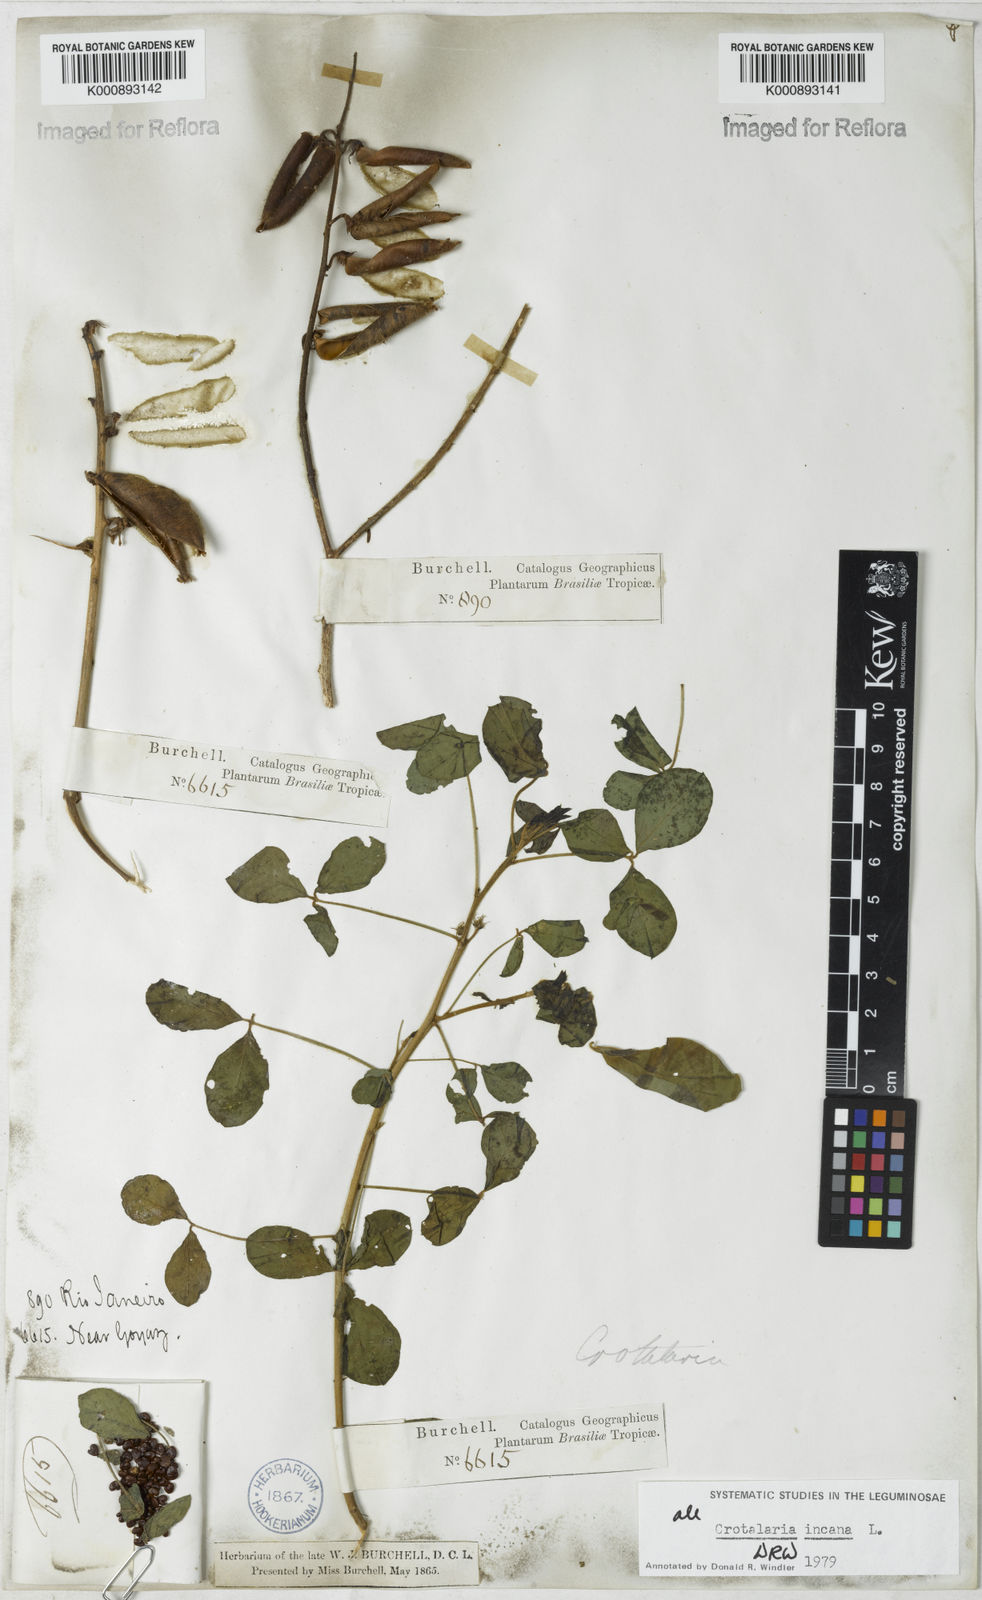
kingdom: Plantae
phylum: Tracheophyta
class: Magnoliopsida
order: Fabales
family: Fabaceae
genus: Crotalaria
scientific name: Crotalaria incana
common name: Shakeshake
